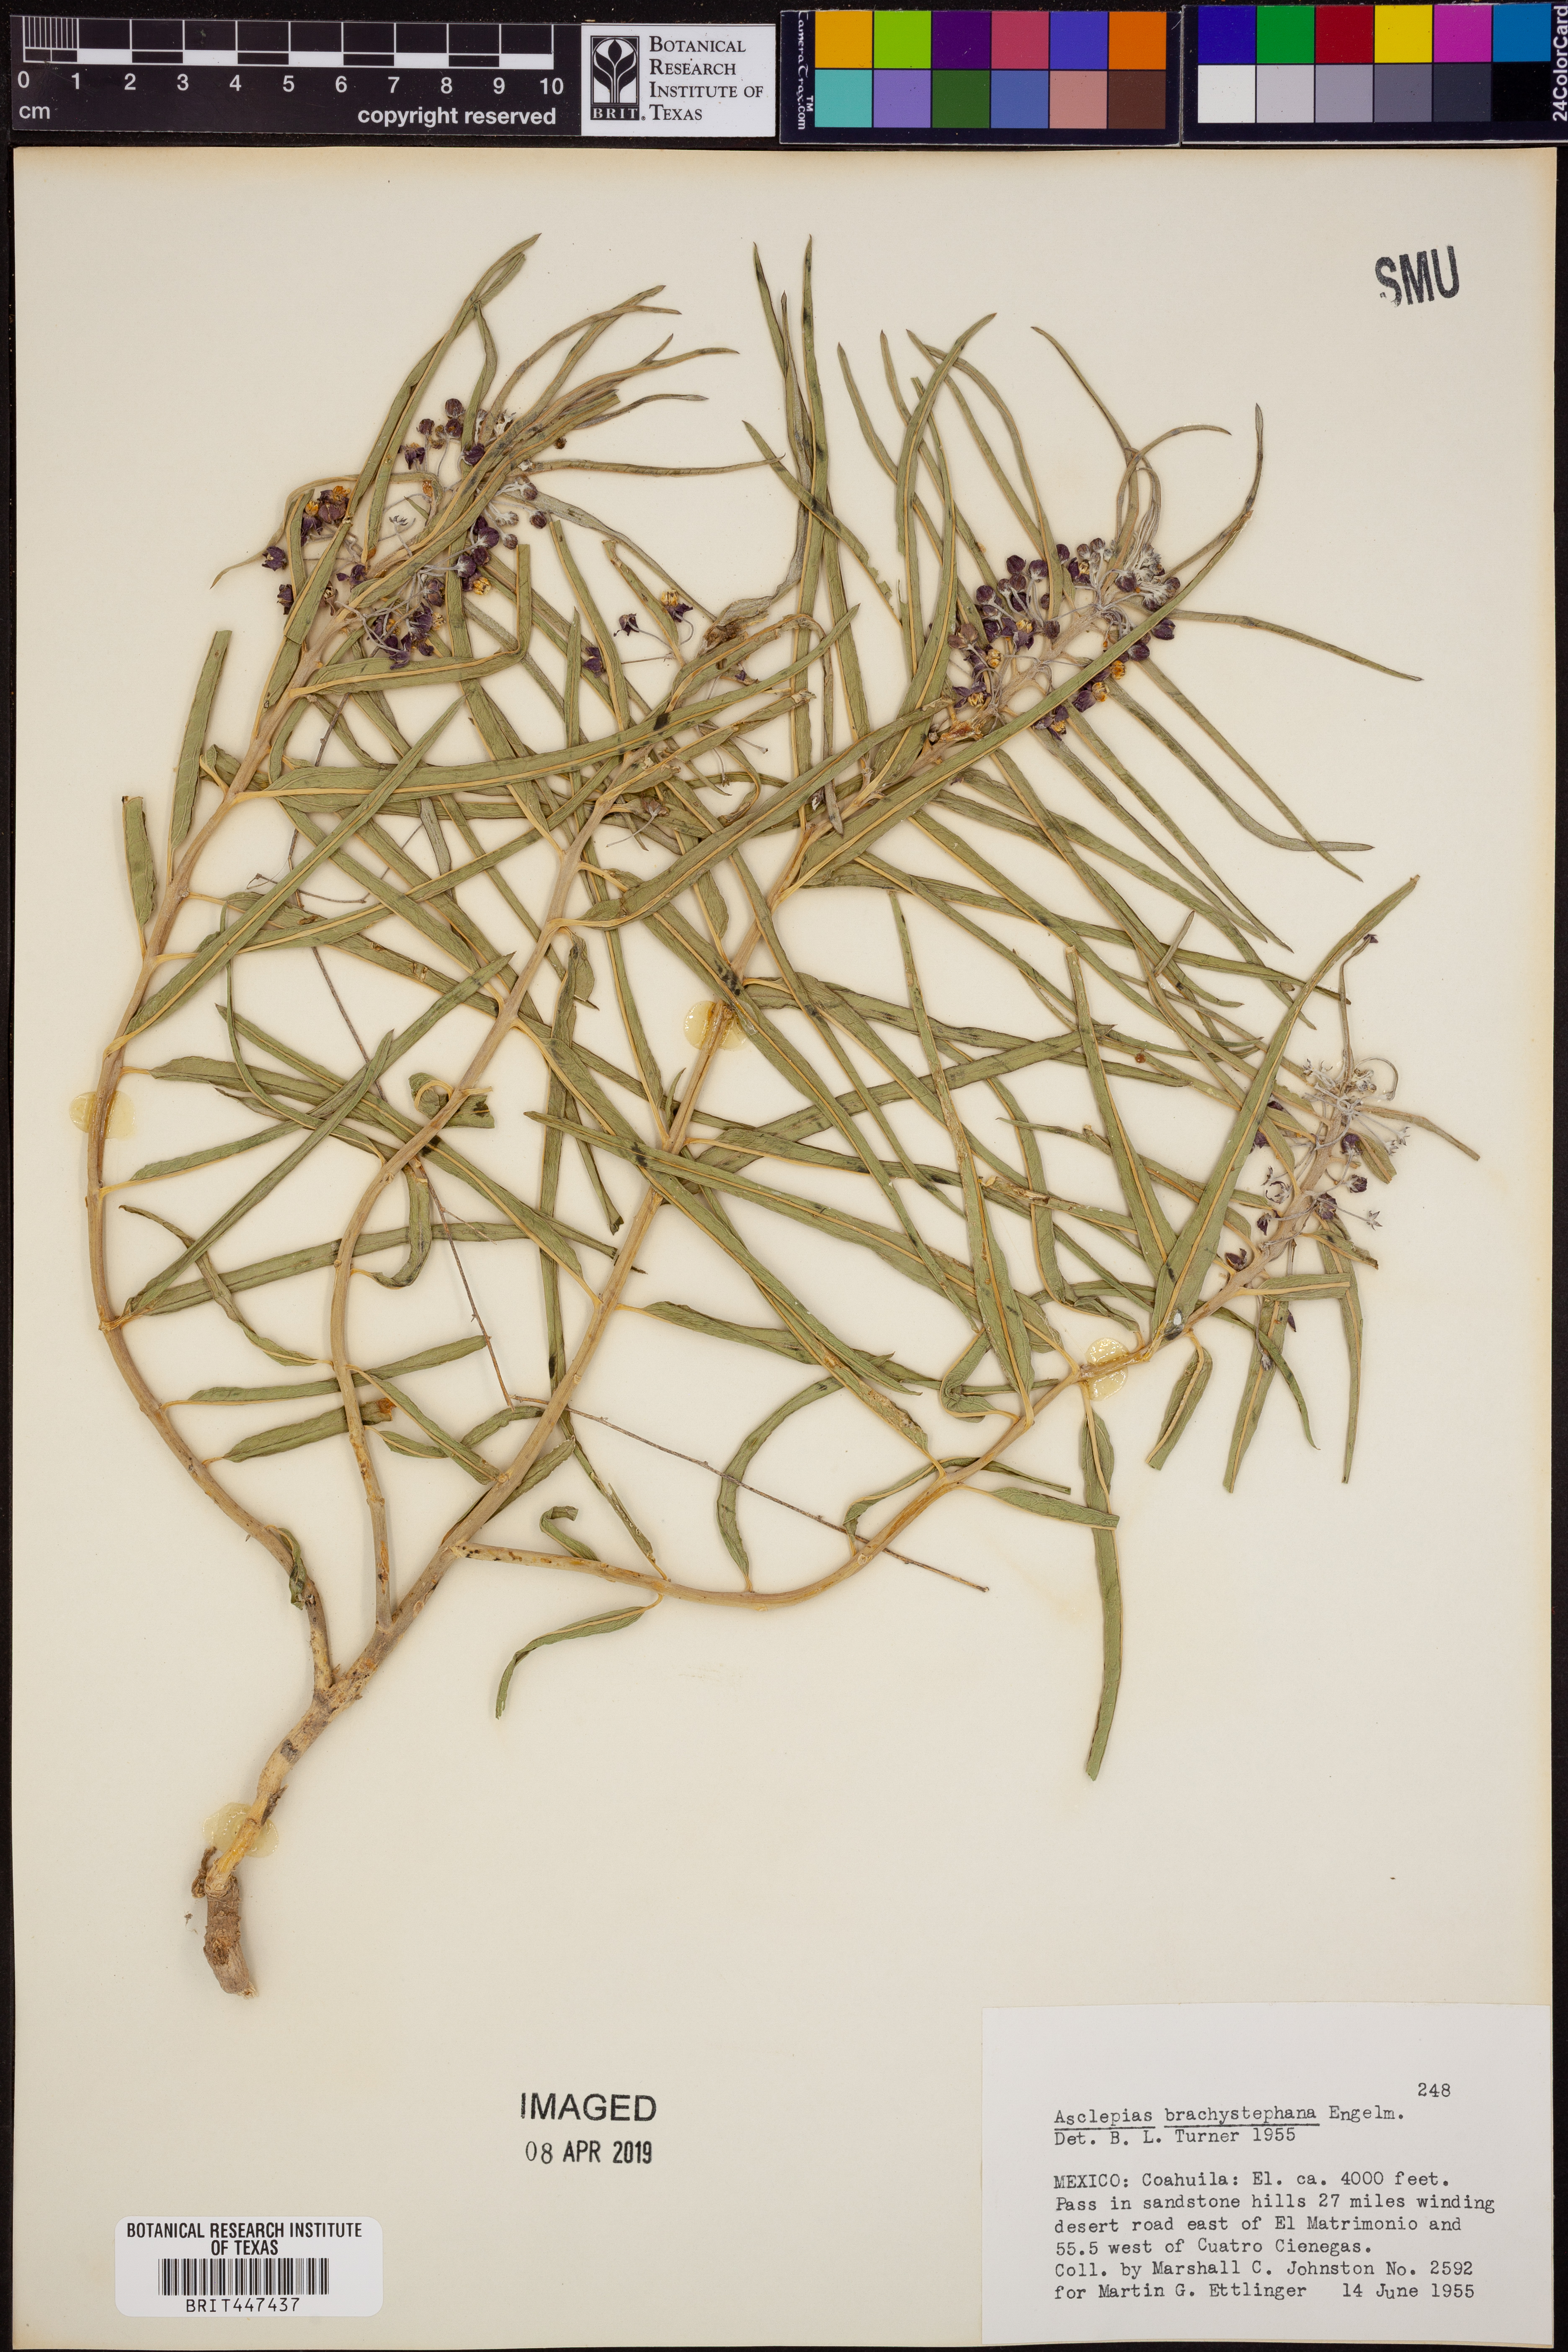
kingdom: Plantae
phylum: Tracheophyta
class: Magnoliopsida
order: Gentianales
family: Apocynaceae
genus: Asclepias
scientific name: Asclepias brachystephana
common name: Shortcrown milkweed
